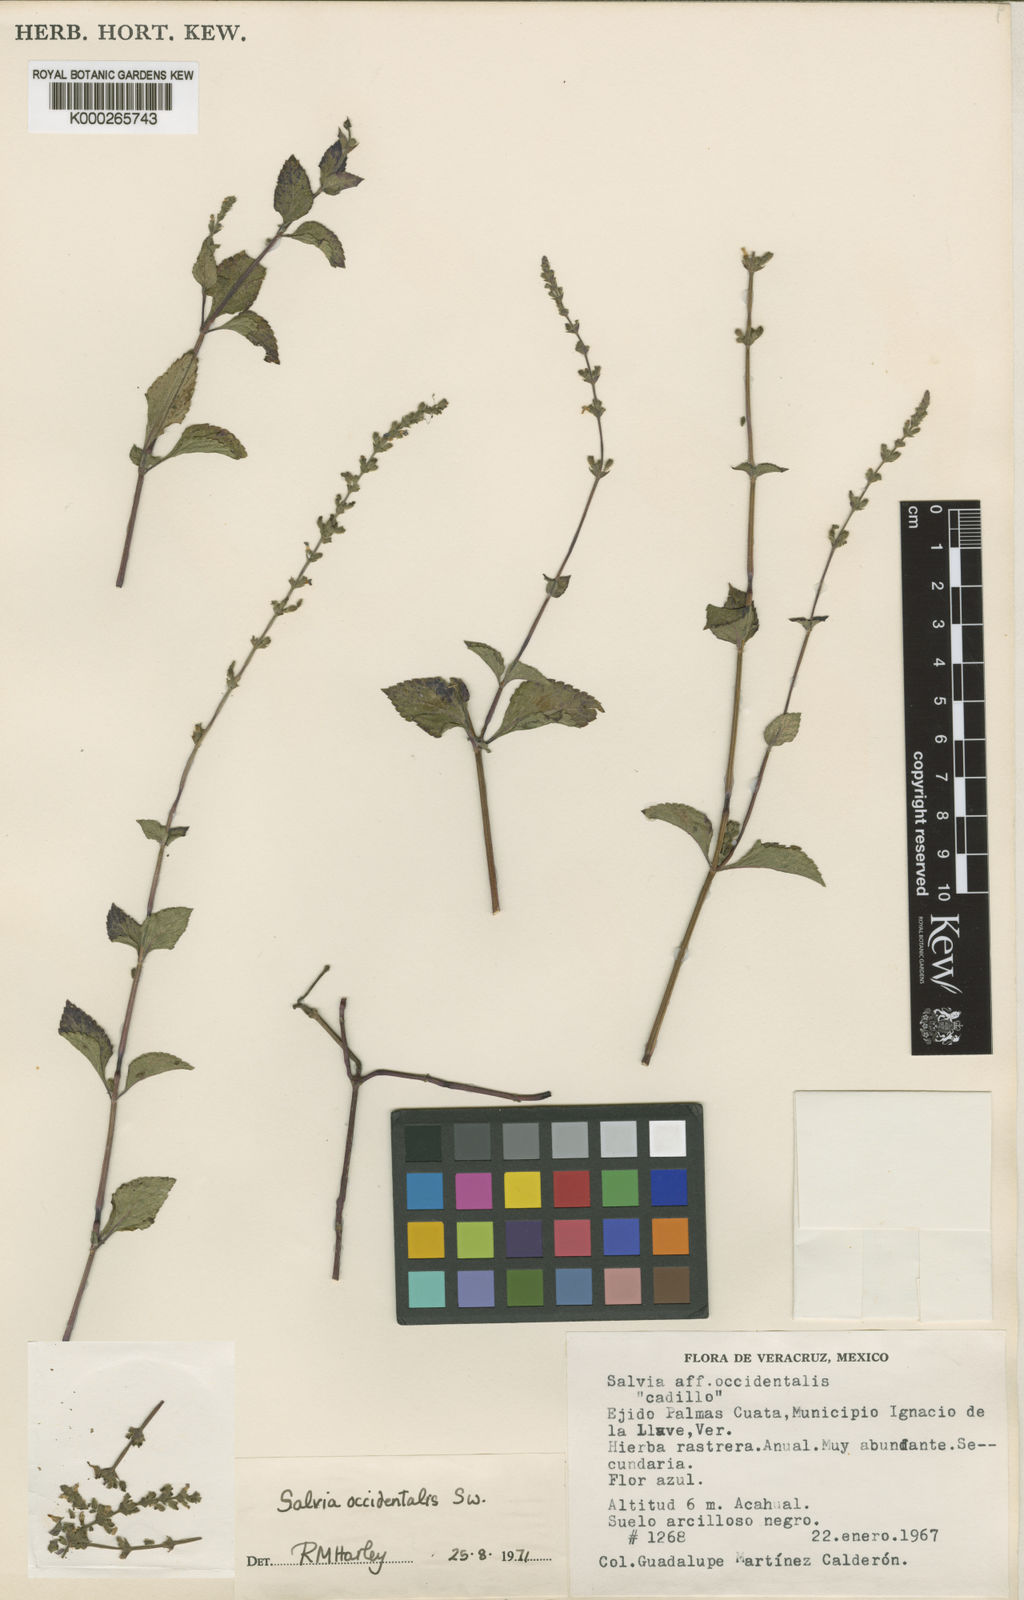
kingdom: Plantae
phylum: Tracheophyta
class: Magnoliopsida
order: Lamiales
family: Lamiaceae
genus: Salvia
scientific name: Salvia occidentalis
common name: West indian sage
